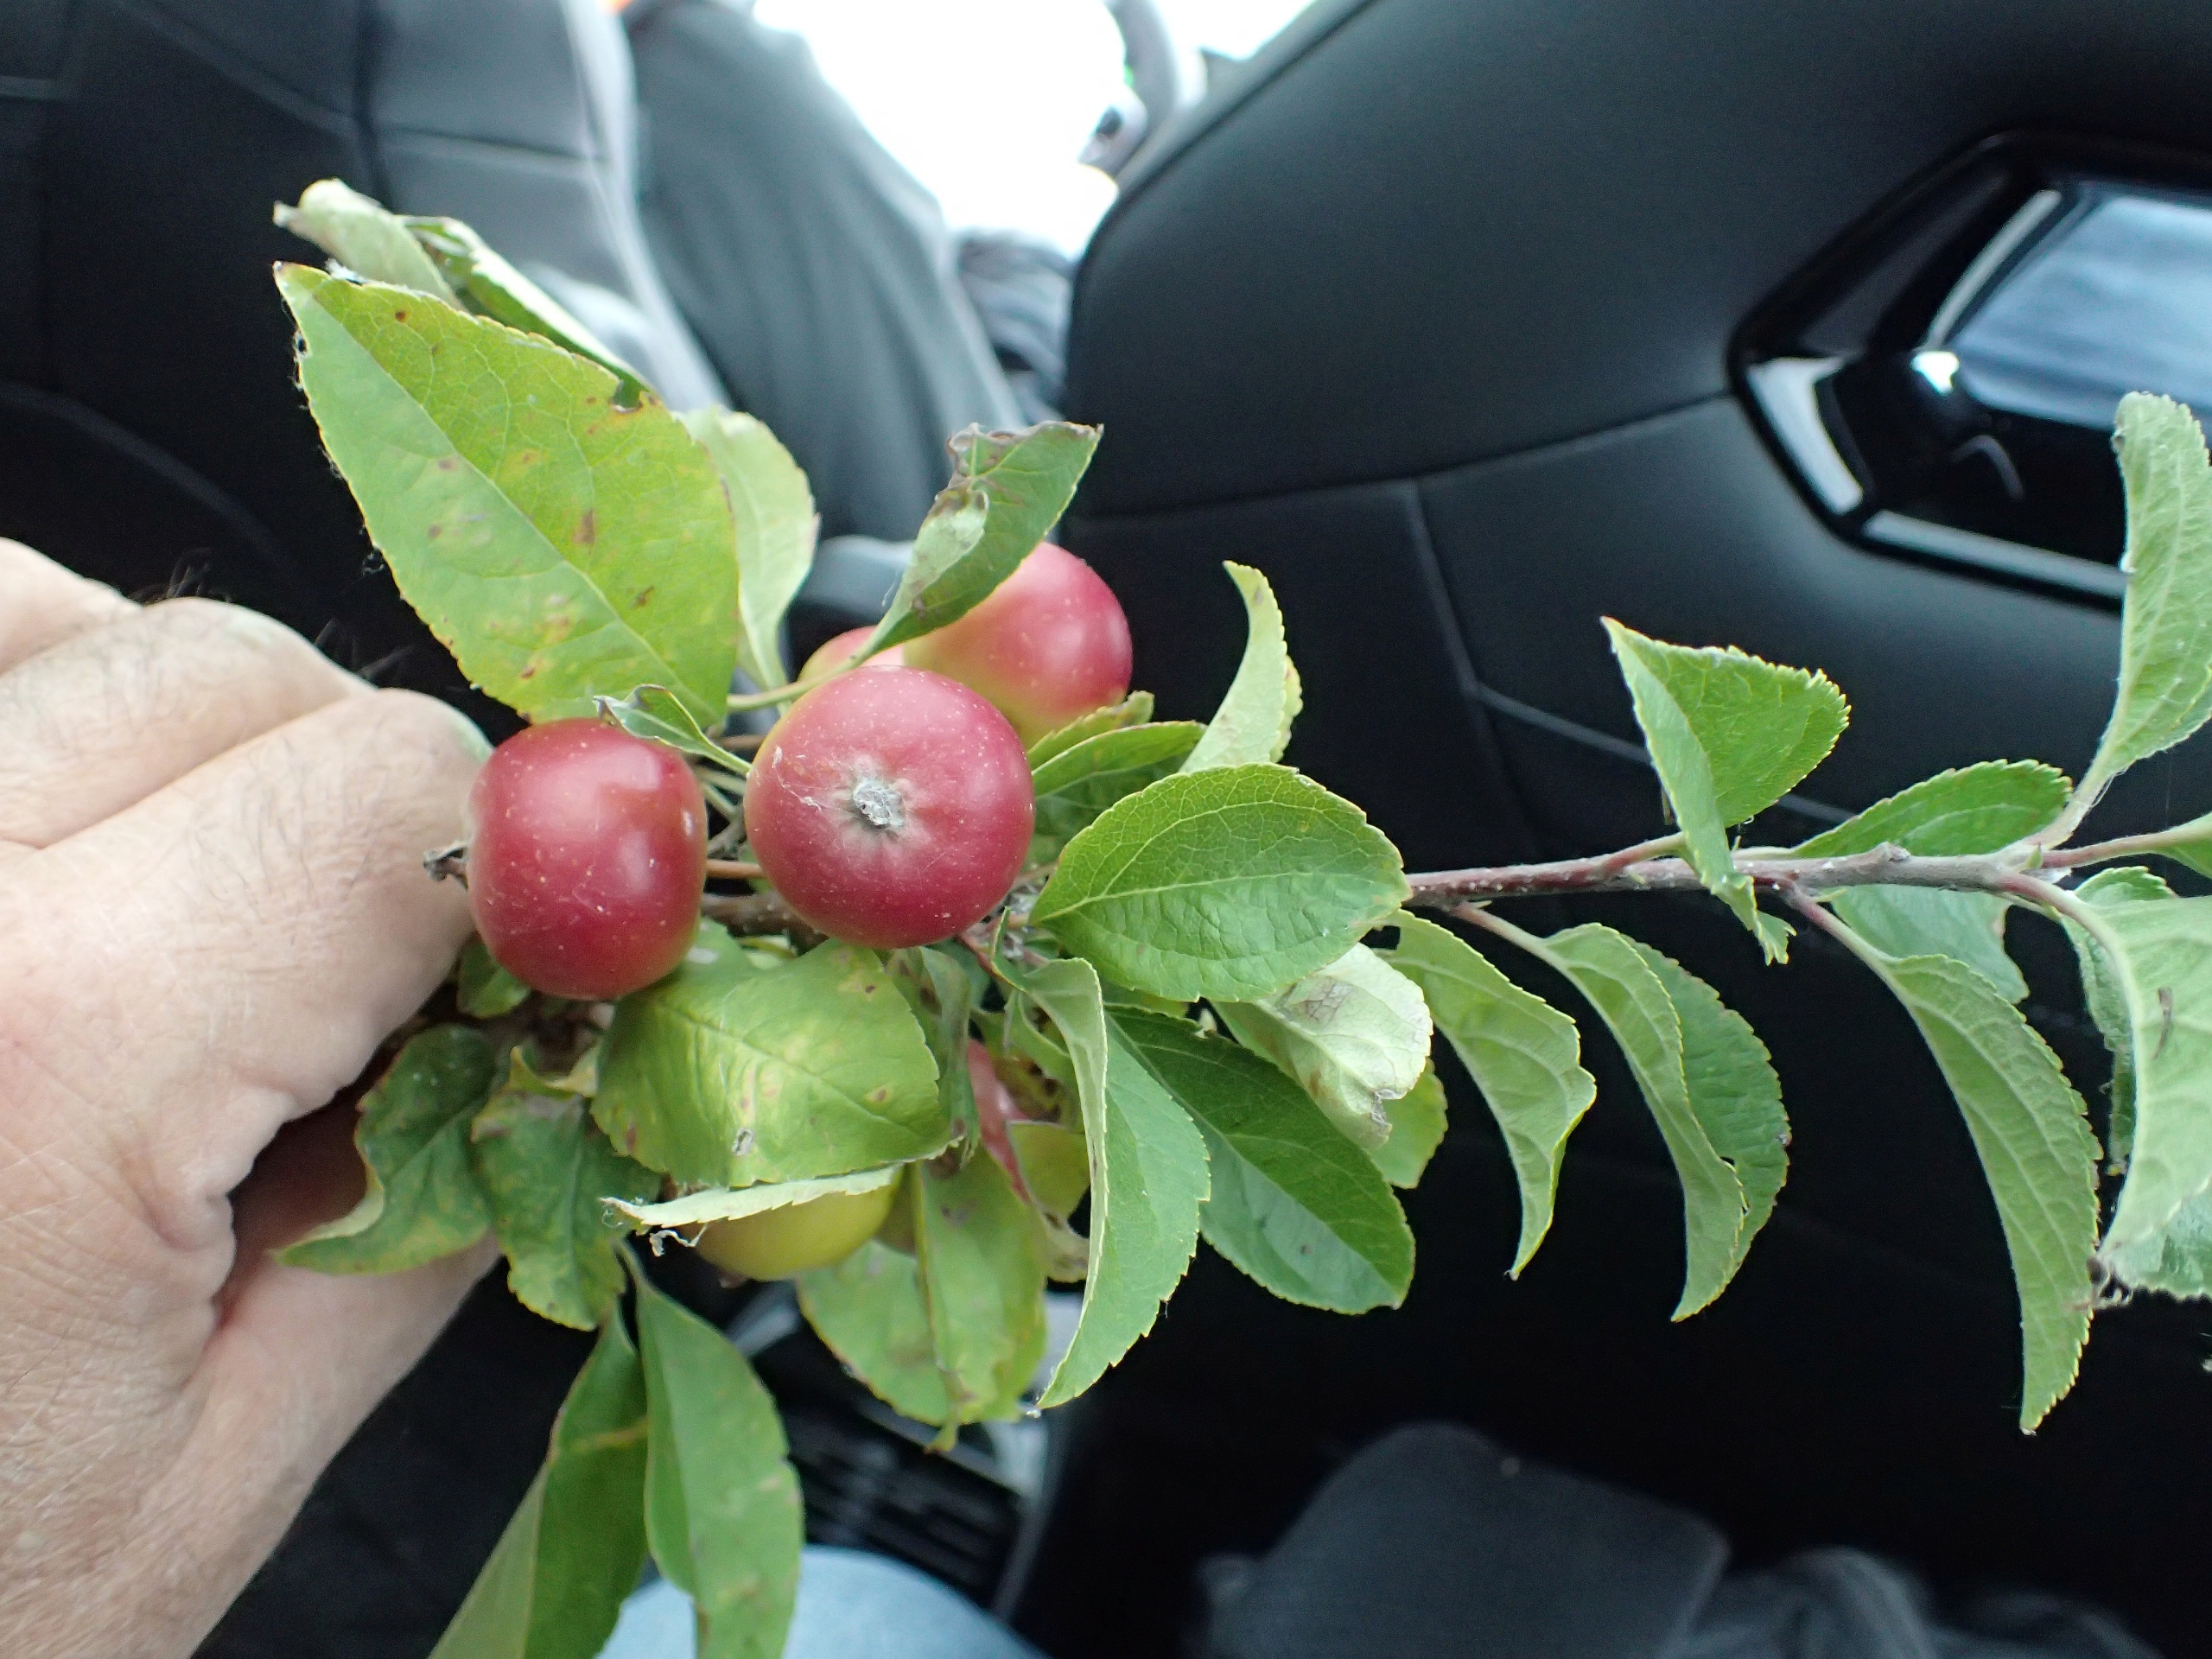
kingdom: Plantae
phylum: Tracheophyta
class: Magnoliopsida
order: Rosales
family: Rosaceae
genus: Malus
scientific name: Malus domestica
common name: Sød-æble
